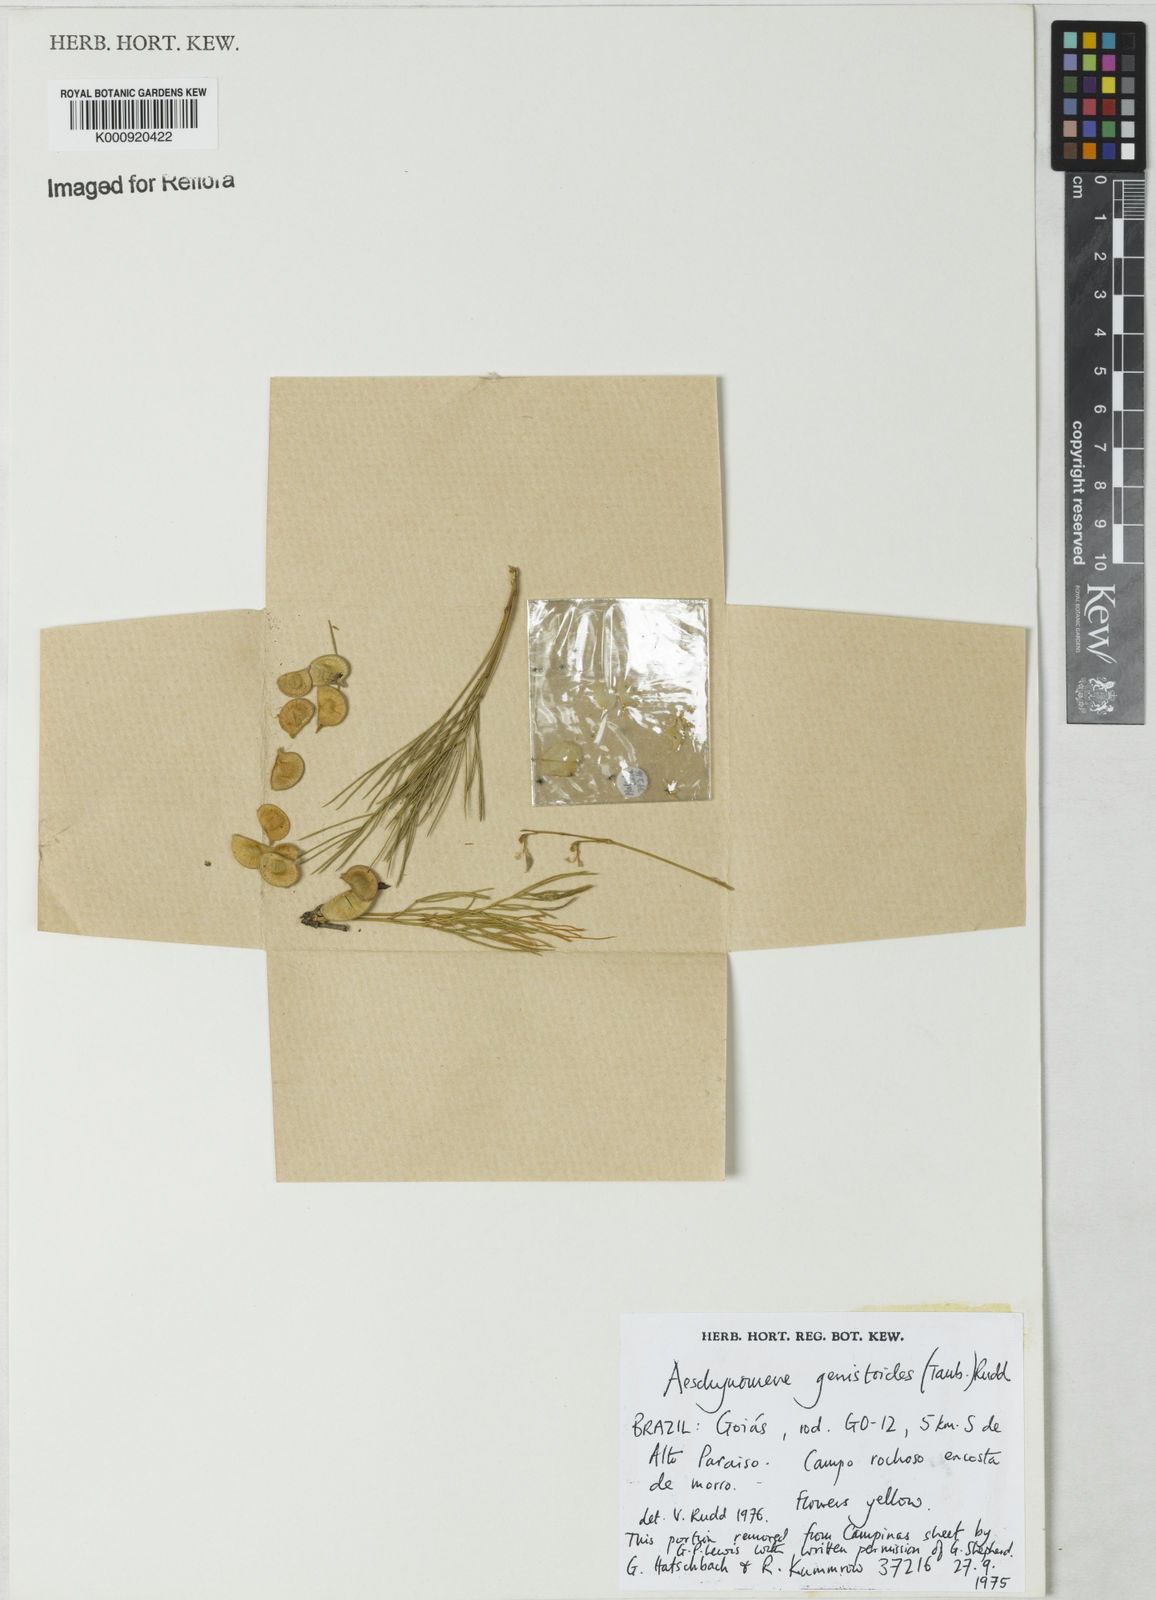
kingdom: Plantae
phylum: Tracheophyta
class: Magnoliopsida
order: Fabales
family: Fabaceae
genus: Ctenodon
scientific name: Ctenodon genistoides
